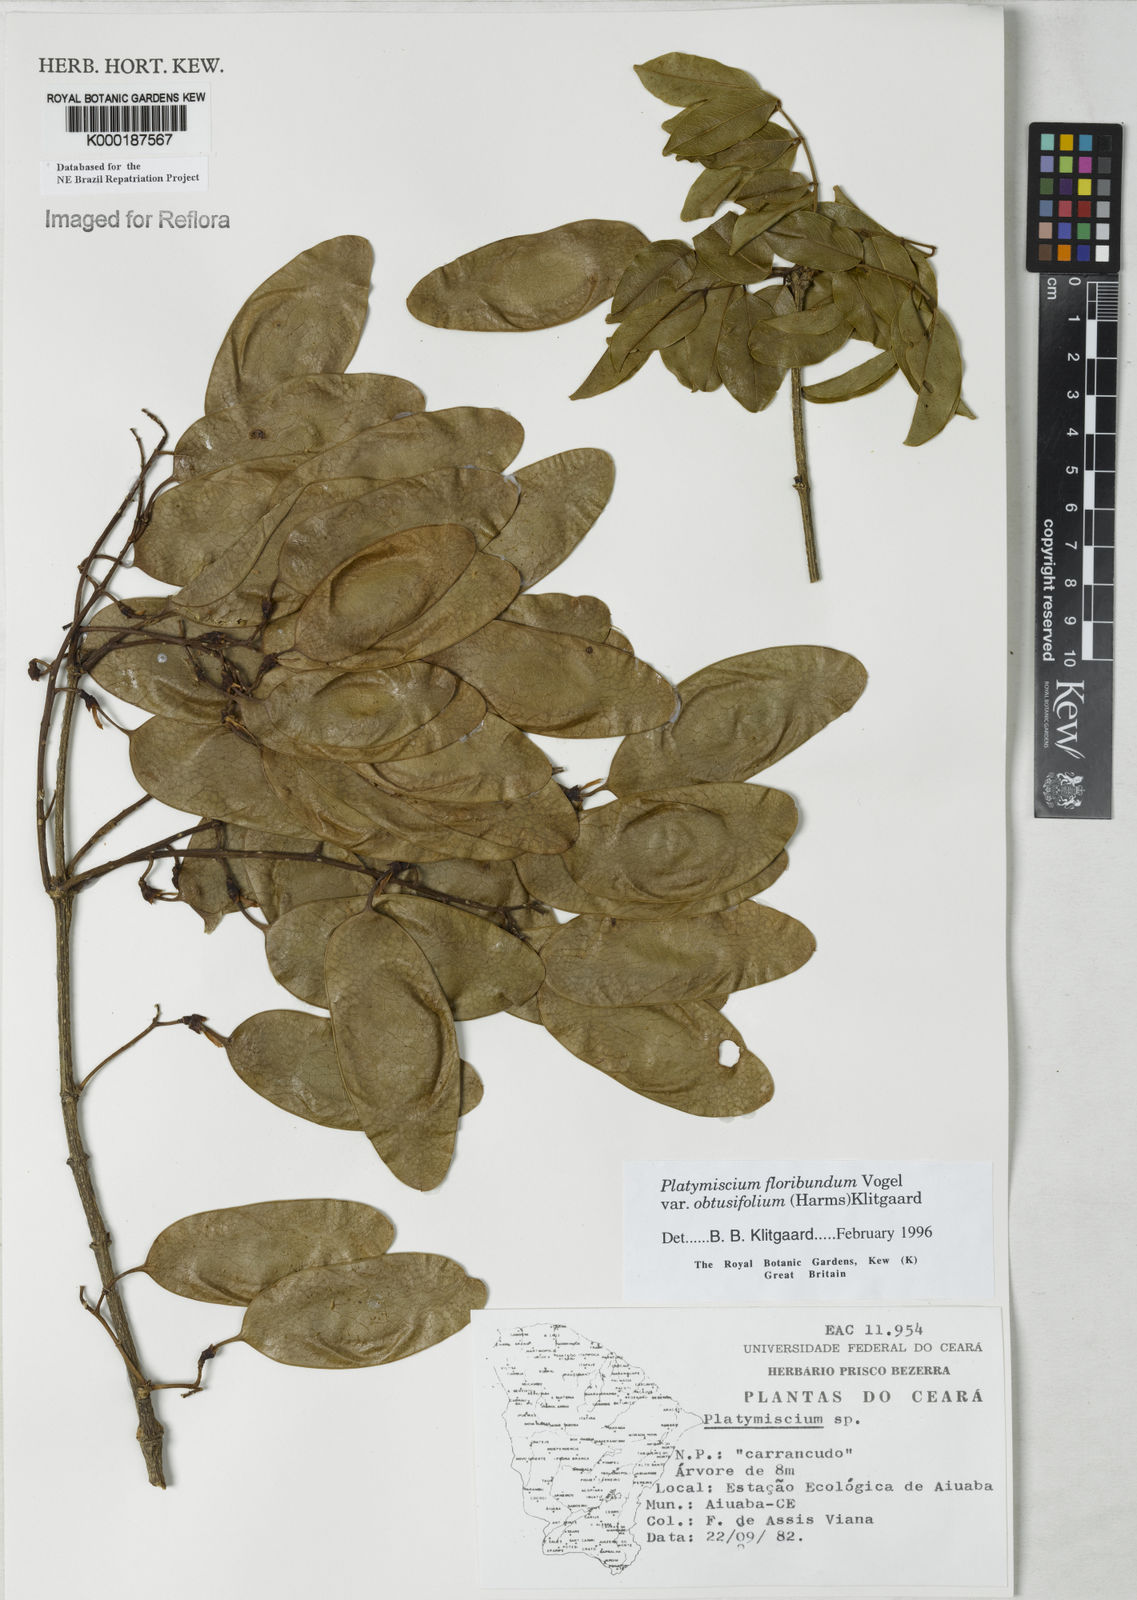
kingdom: Plantae
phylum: Tracheophyta
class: Magnoliopsida
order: Fabales
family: Fabaceae
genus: Platymiscium
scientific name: Platymiscium floribundum
